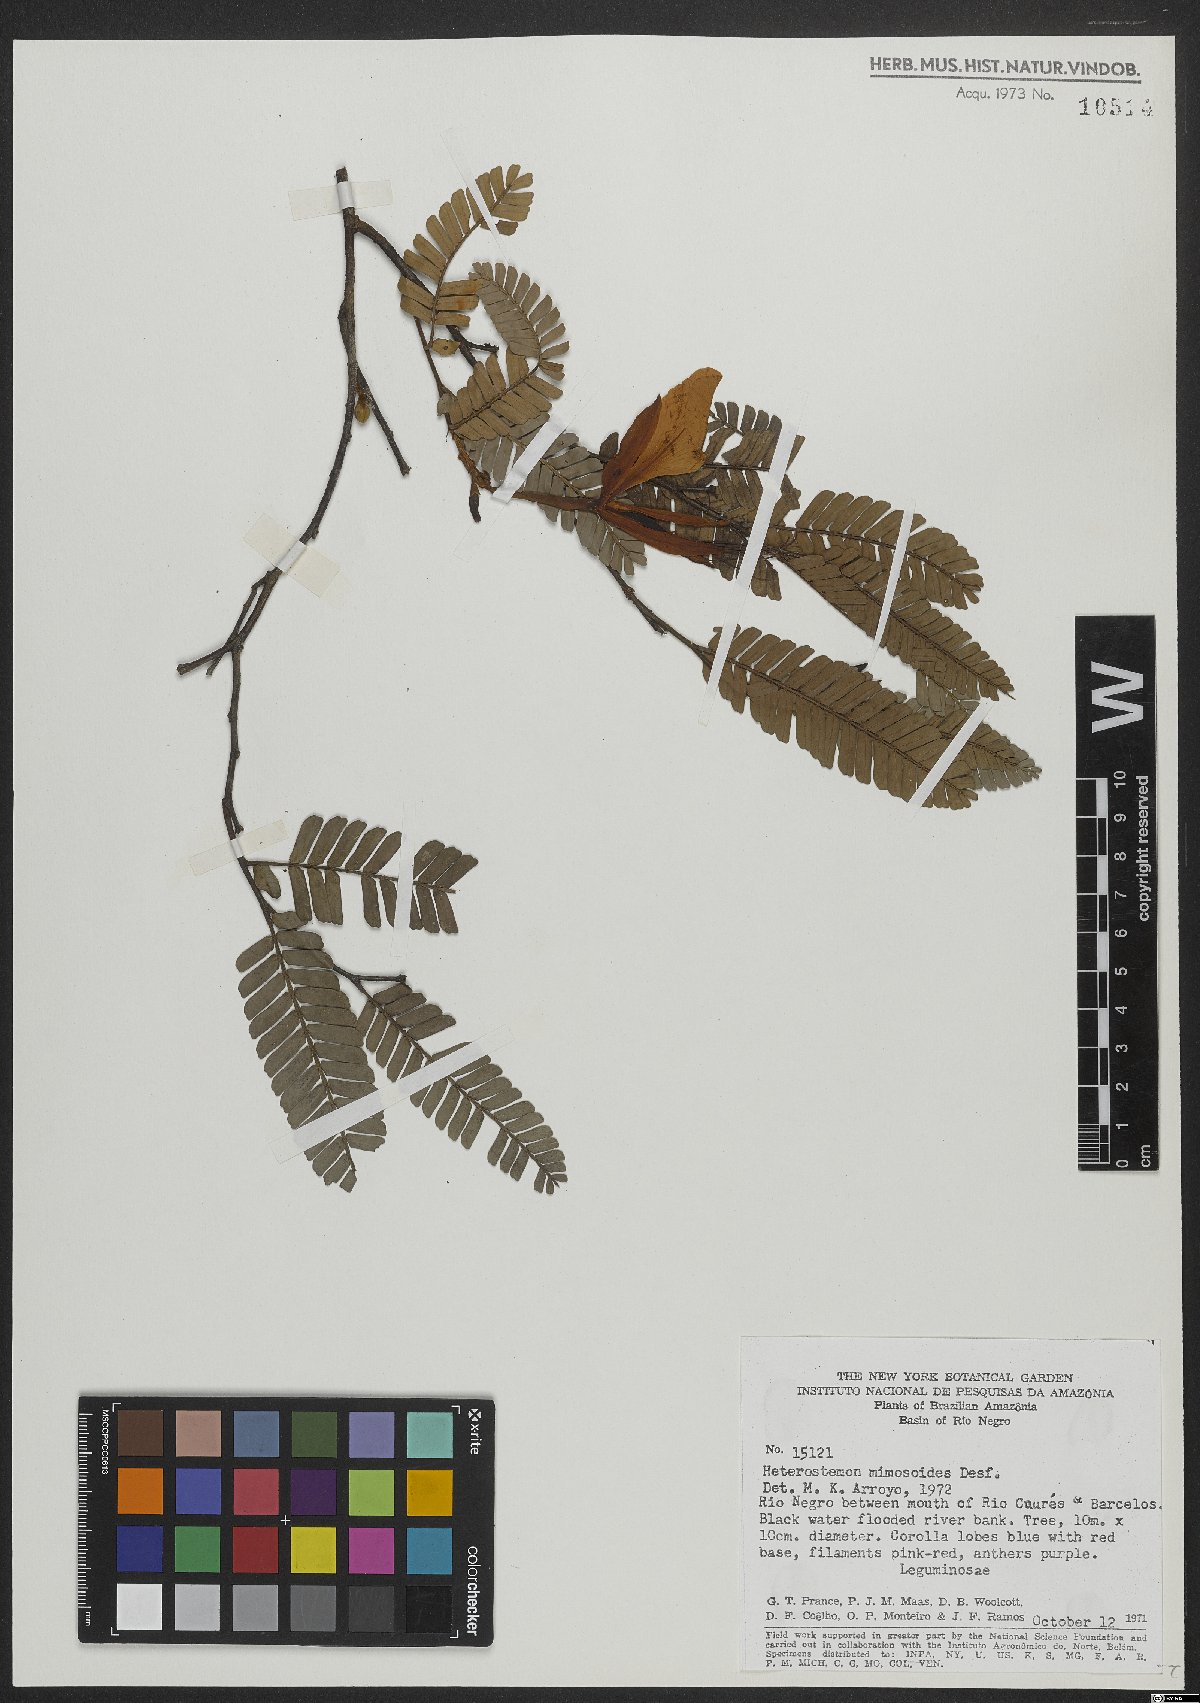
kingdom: Plantae
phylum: Tracheophyta
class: Magnoliopsida
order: Fabales
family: Fabaceae
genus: Heterostemon
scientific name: Heterostemon mimosoides
